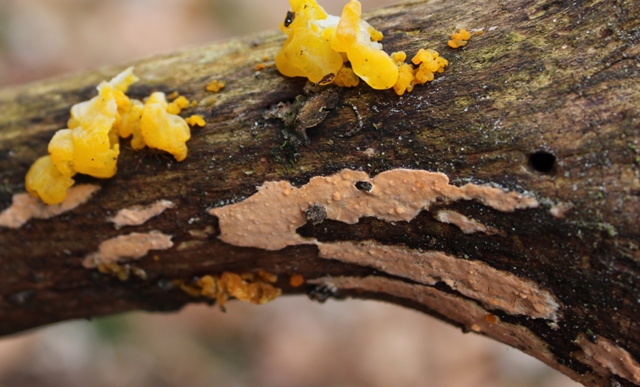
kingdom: Fungi
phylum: Basidiomycota
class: Agaricomycetes
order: Russulales
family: Peniophoraceae
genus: Peniophora
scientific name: Peniophora incarnata
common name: laksefarvet voksskind
